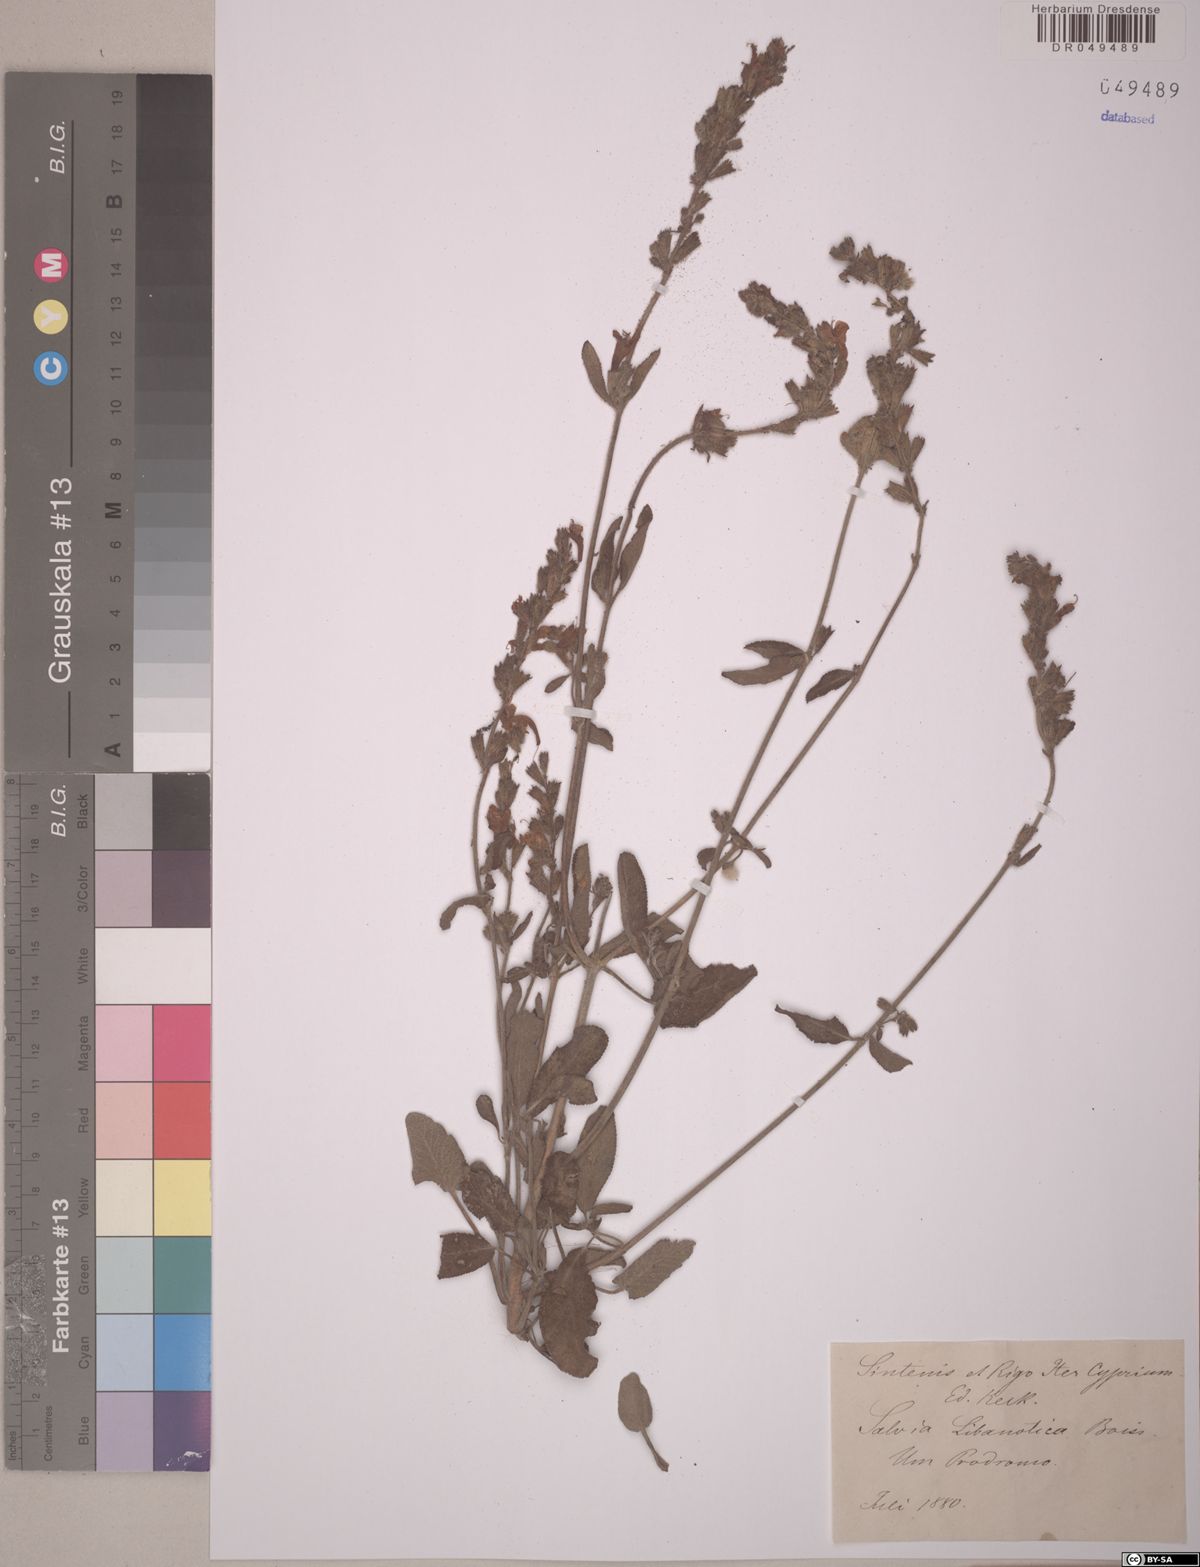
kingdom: Plantae
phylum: Tracheophyta
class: Magnoliopsida
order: Lamiales
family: Lamiaceae
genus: Salvia
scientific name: Salvia fruticosa
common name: Greek sage
